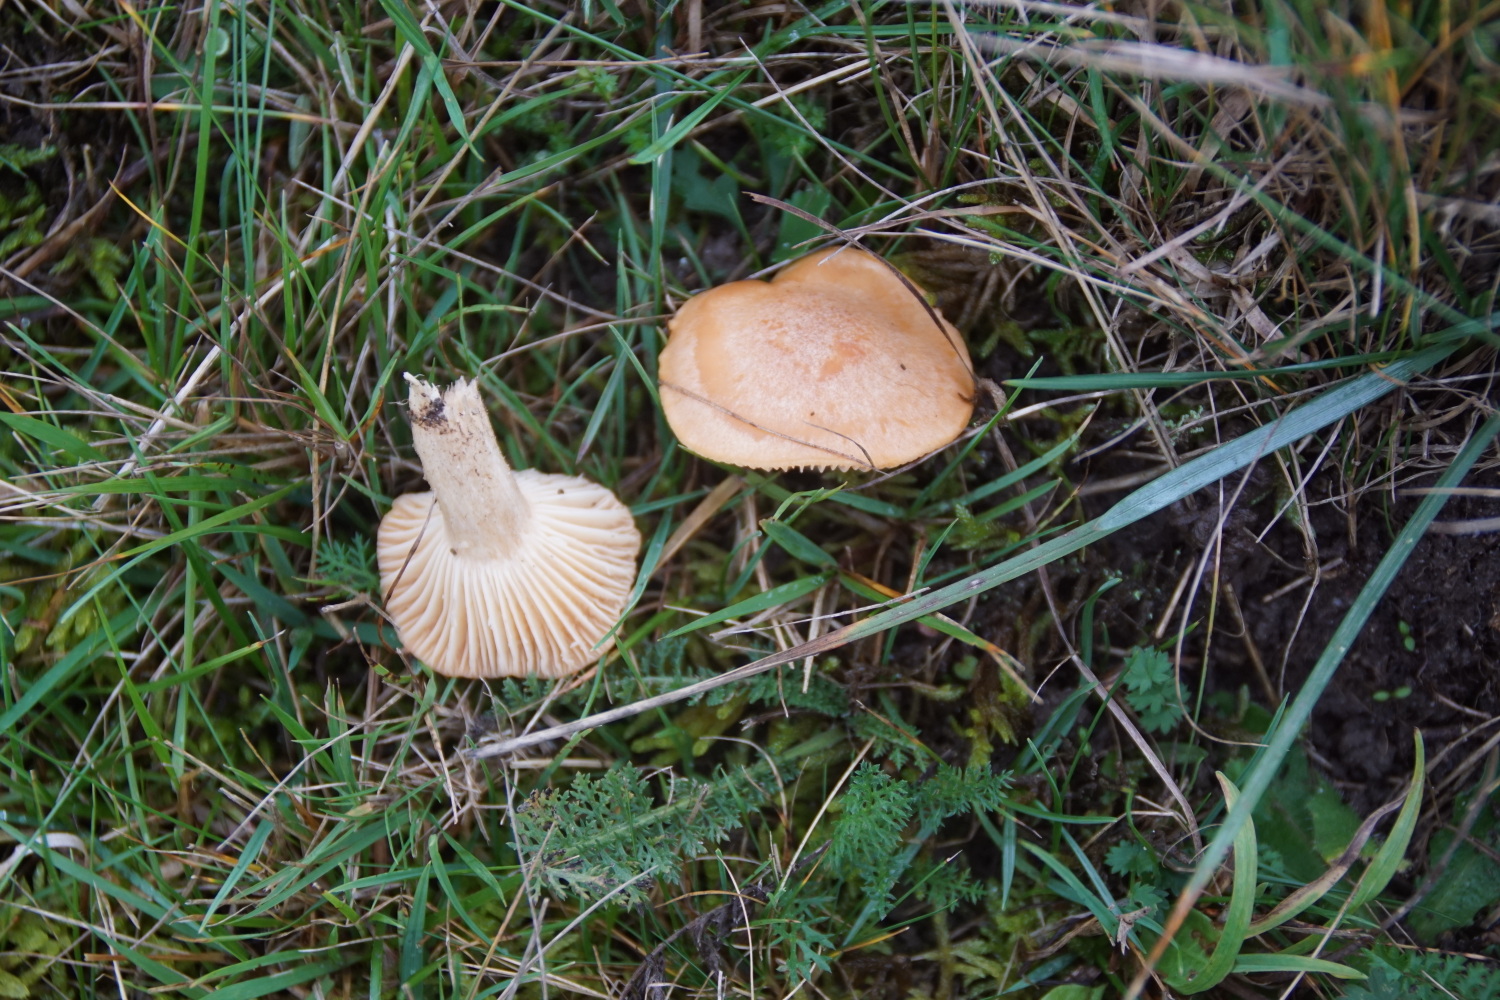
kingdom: Fungi
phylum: Basidiomycota
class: Agaricomycetes
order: Agaricales
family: Hygrophoraceae
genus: Cuphophyllus
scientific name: Cuphophyllus pratensis
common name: eng-vokshat
